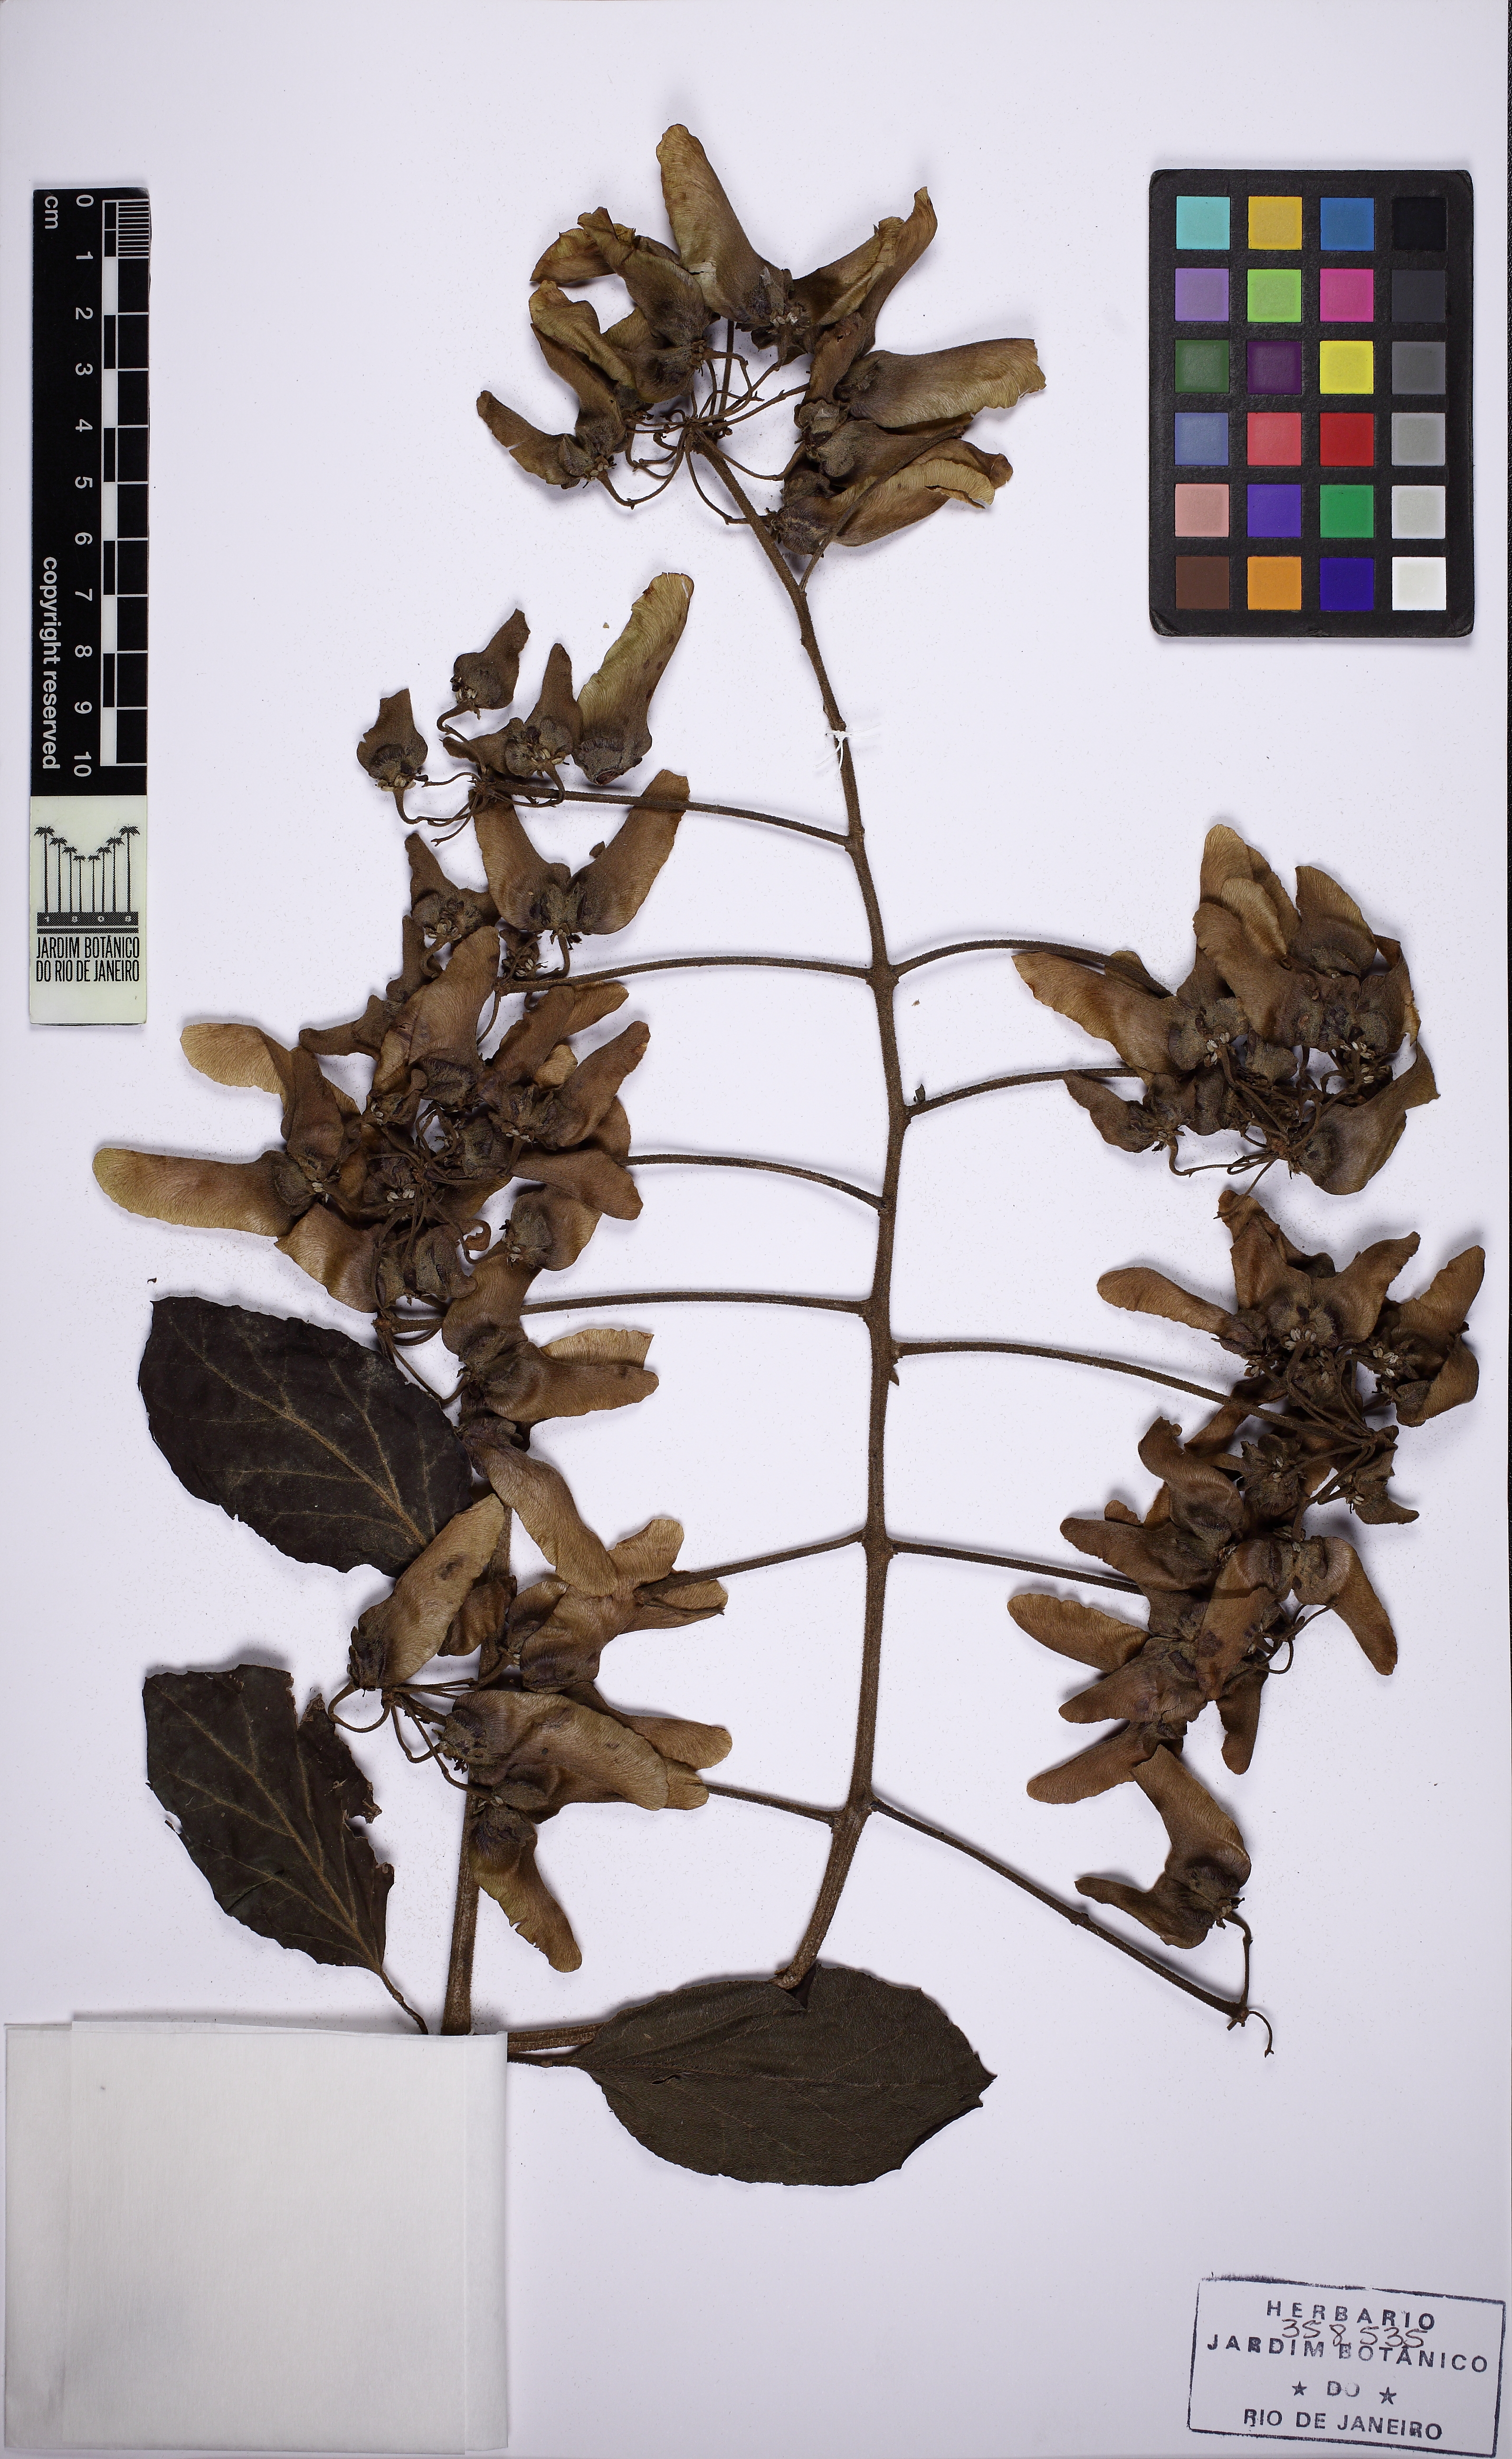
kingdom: Plantae
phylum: Tracheophyta
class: Magnoliopsida
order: Malpighiales
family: Malpighiaceae
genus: Stigmaphyllon
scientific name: Stigmaphyllon
